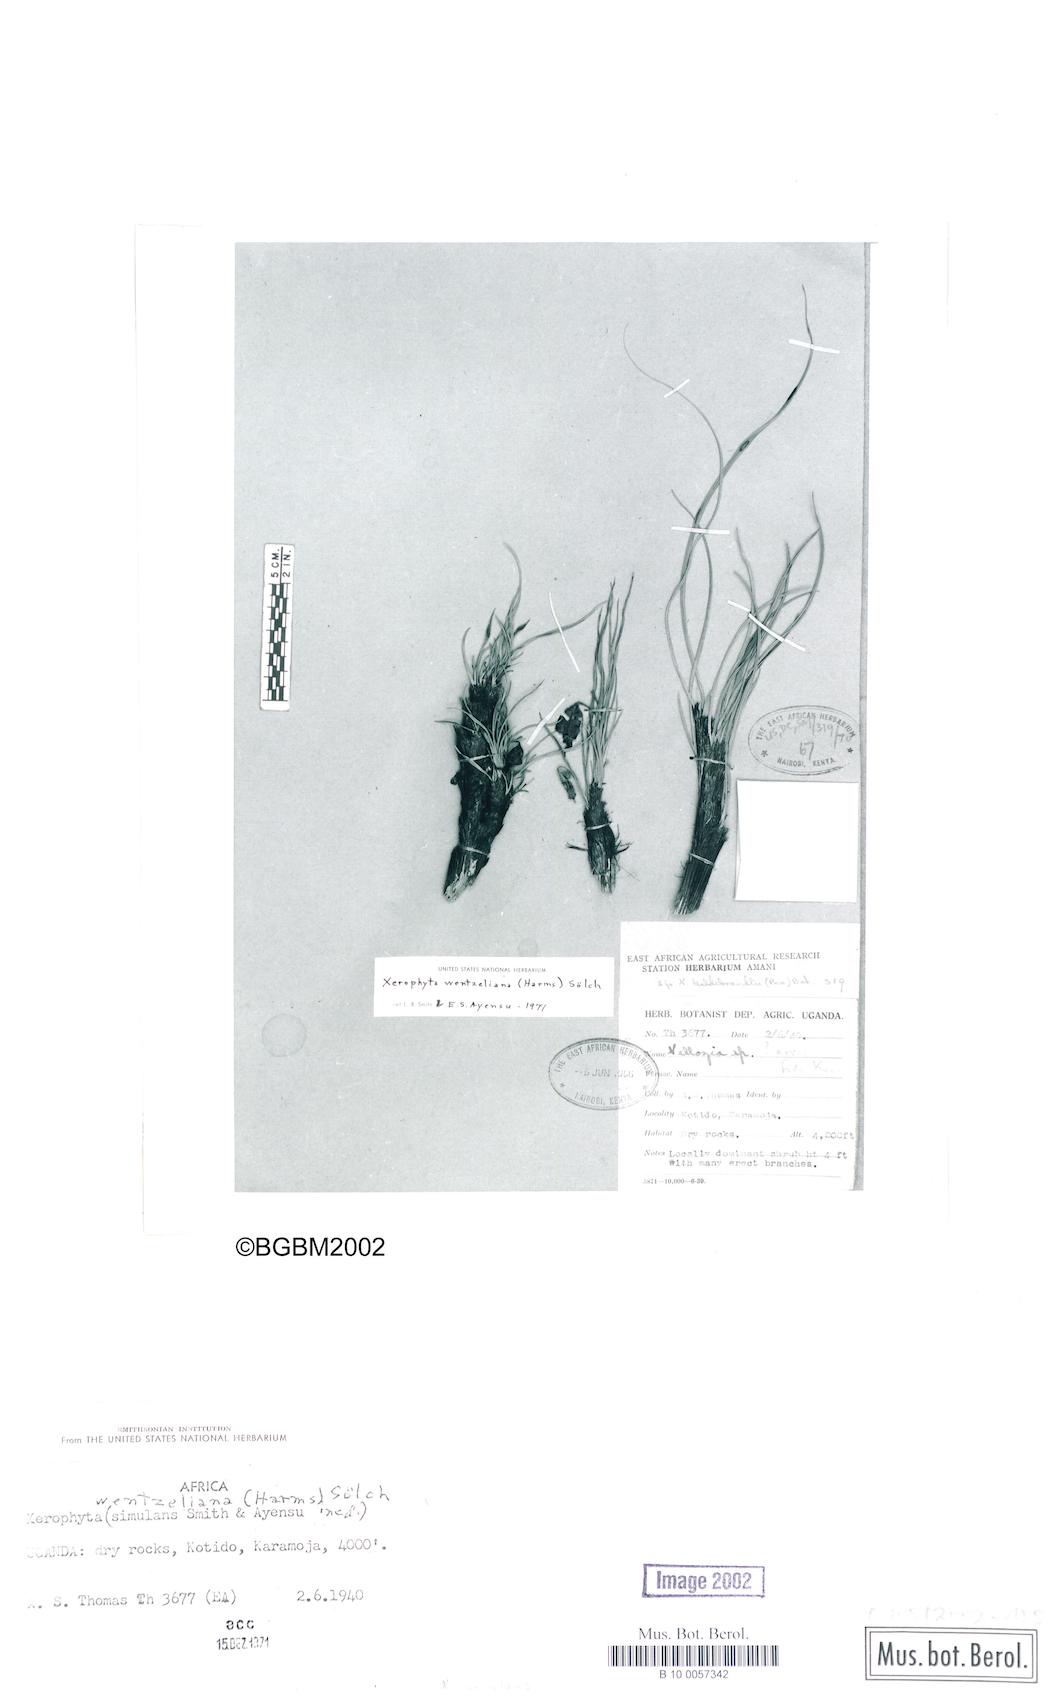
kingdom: Plantae
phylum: Tracheophyta
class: Liliopsida
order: Pandanales
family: Velloziaceae
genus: Xerophyta
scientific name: Xerophyta simulans
